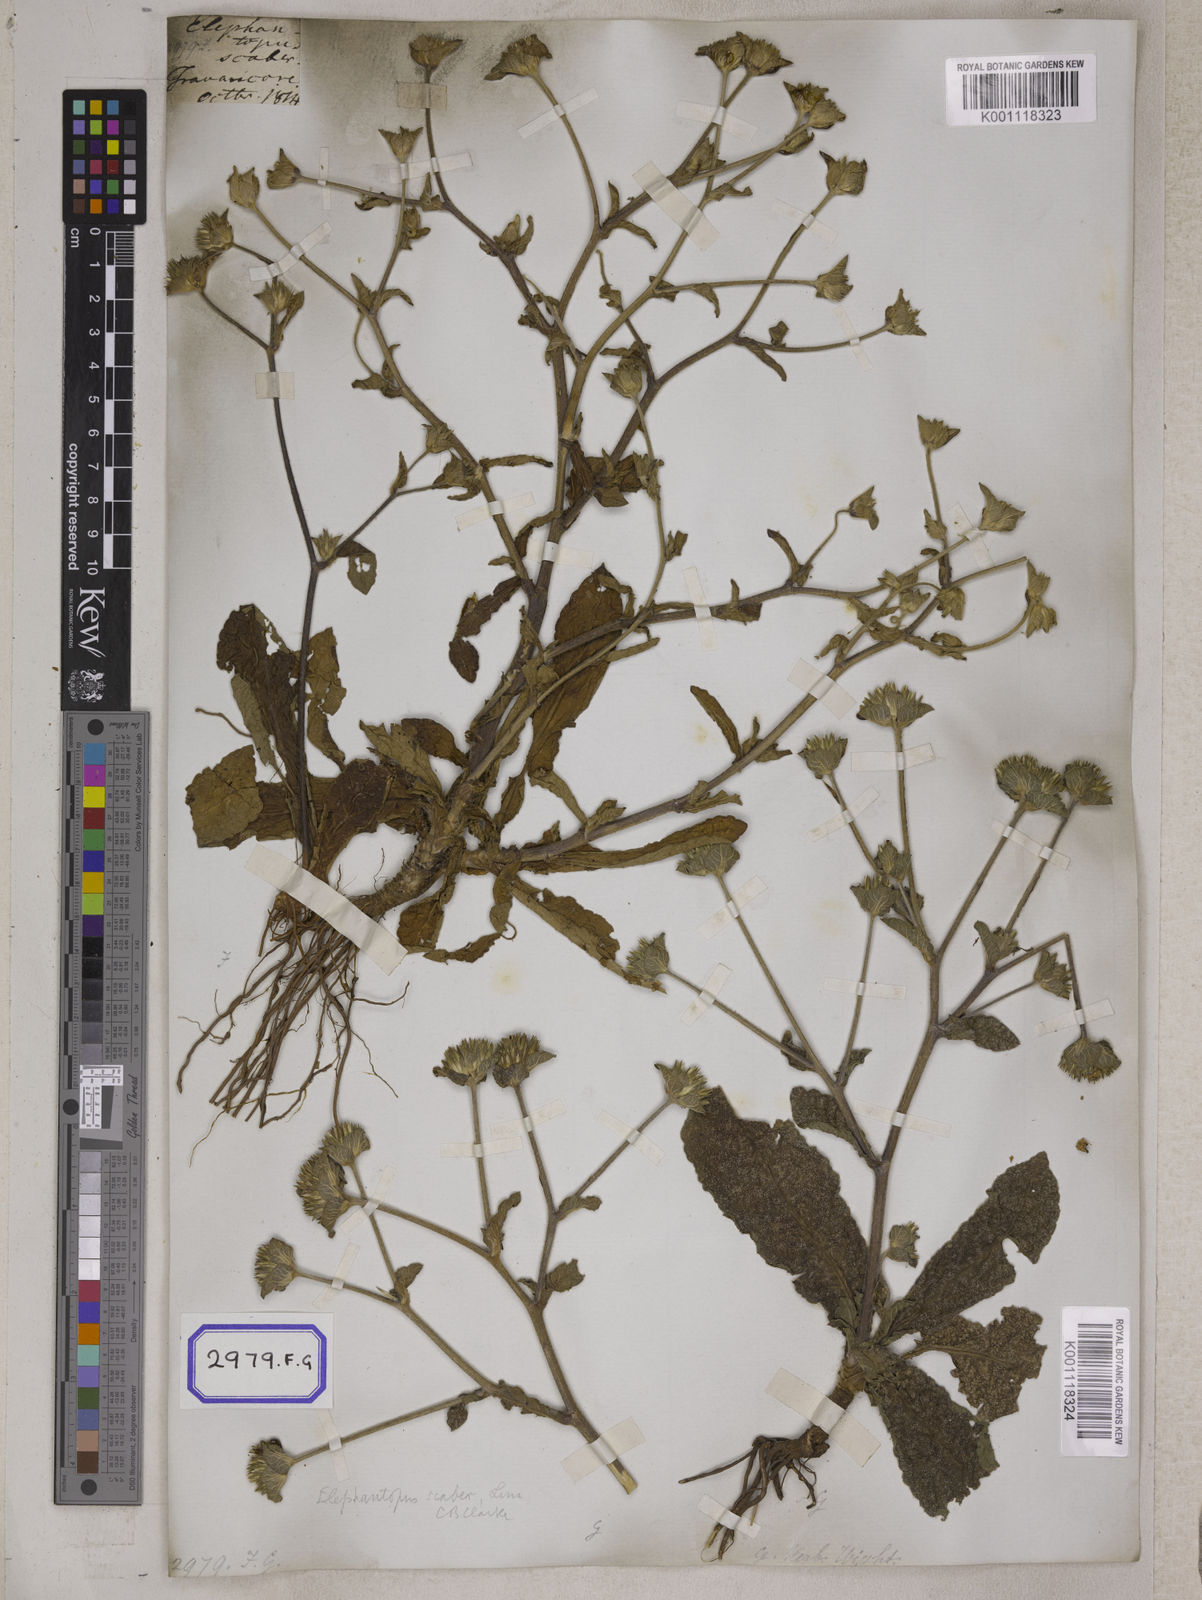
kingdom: Plantae
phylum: Tracheophyta
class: Magnoliopsida
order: Asterales
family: Asteraceae
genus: Elephantopus
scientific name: Elephantopus scaber
